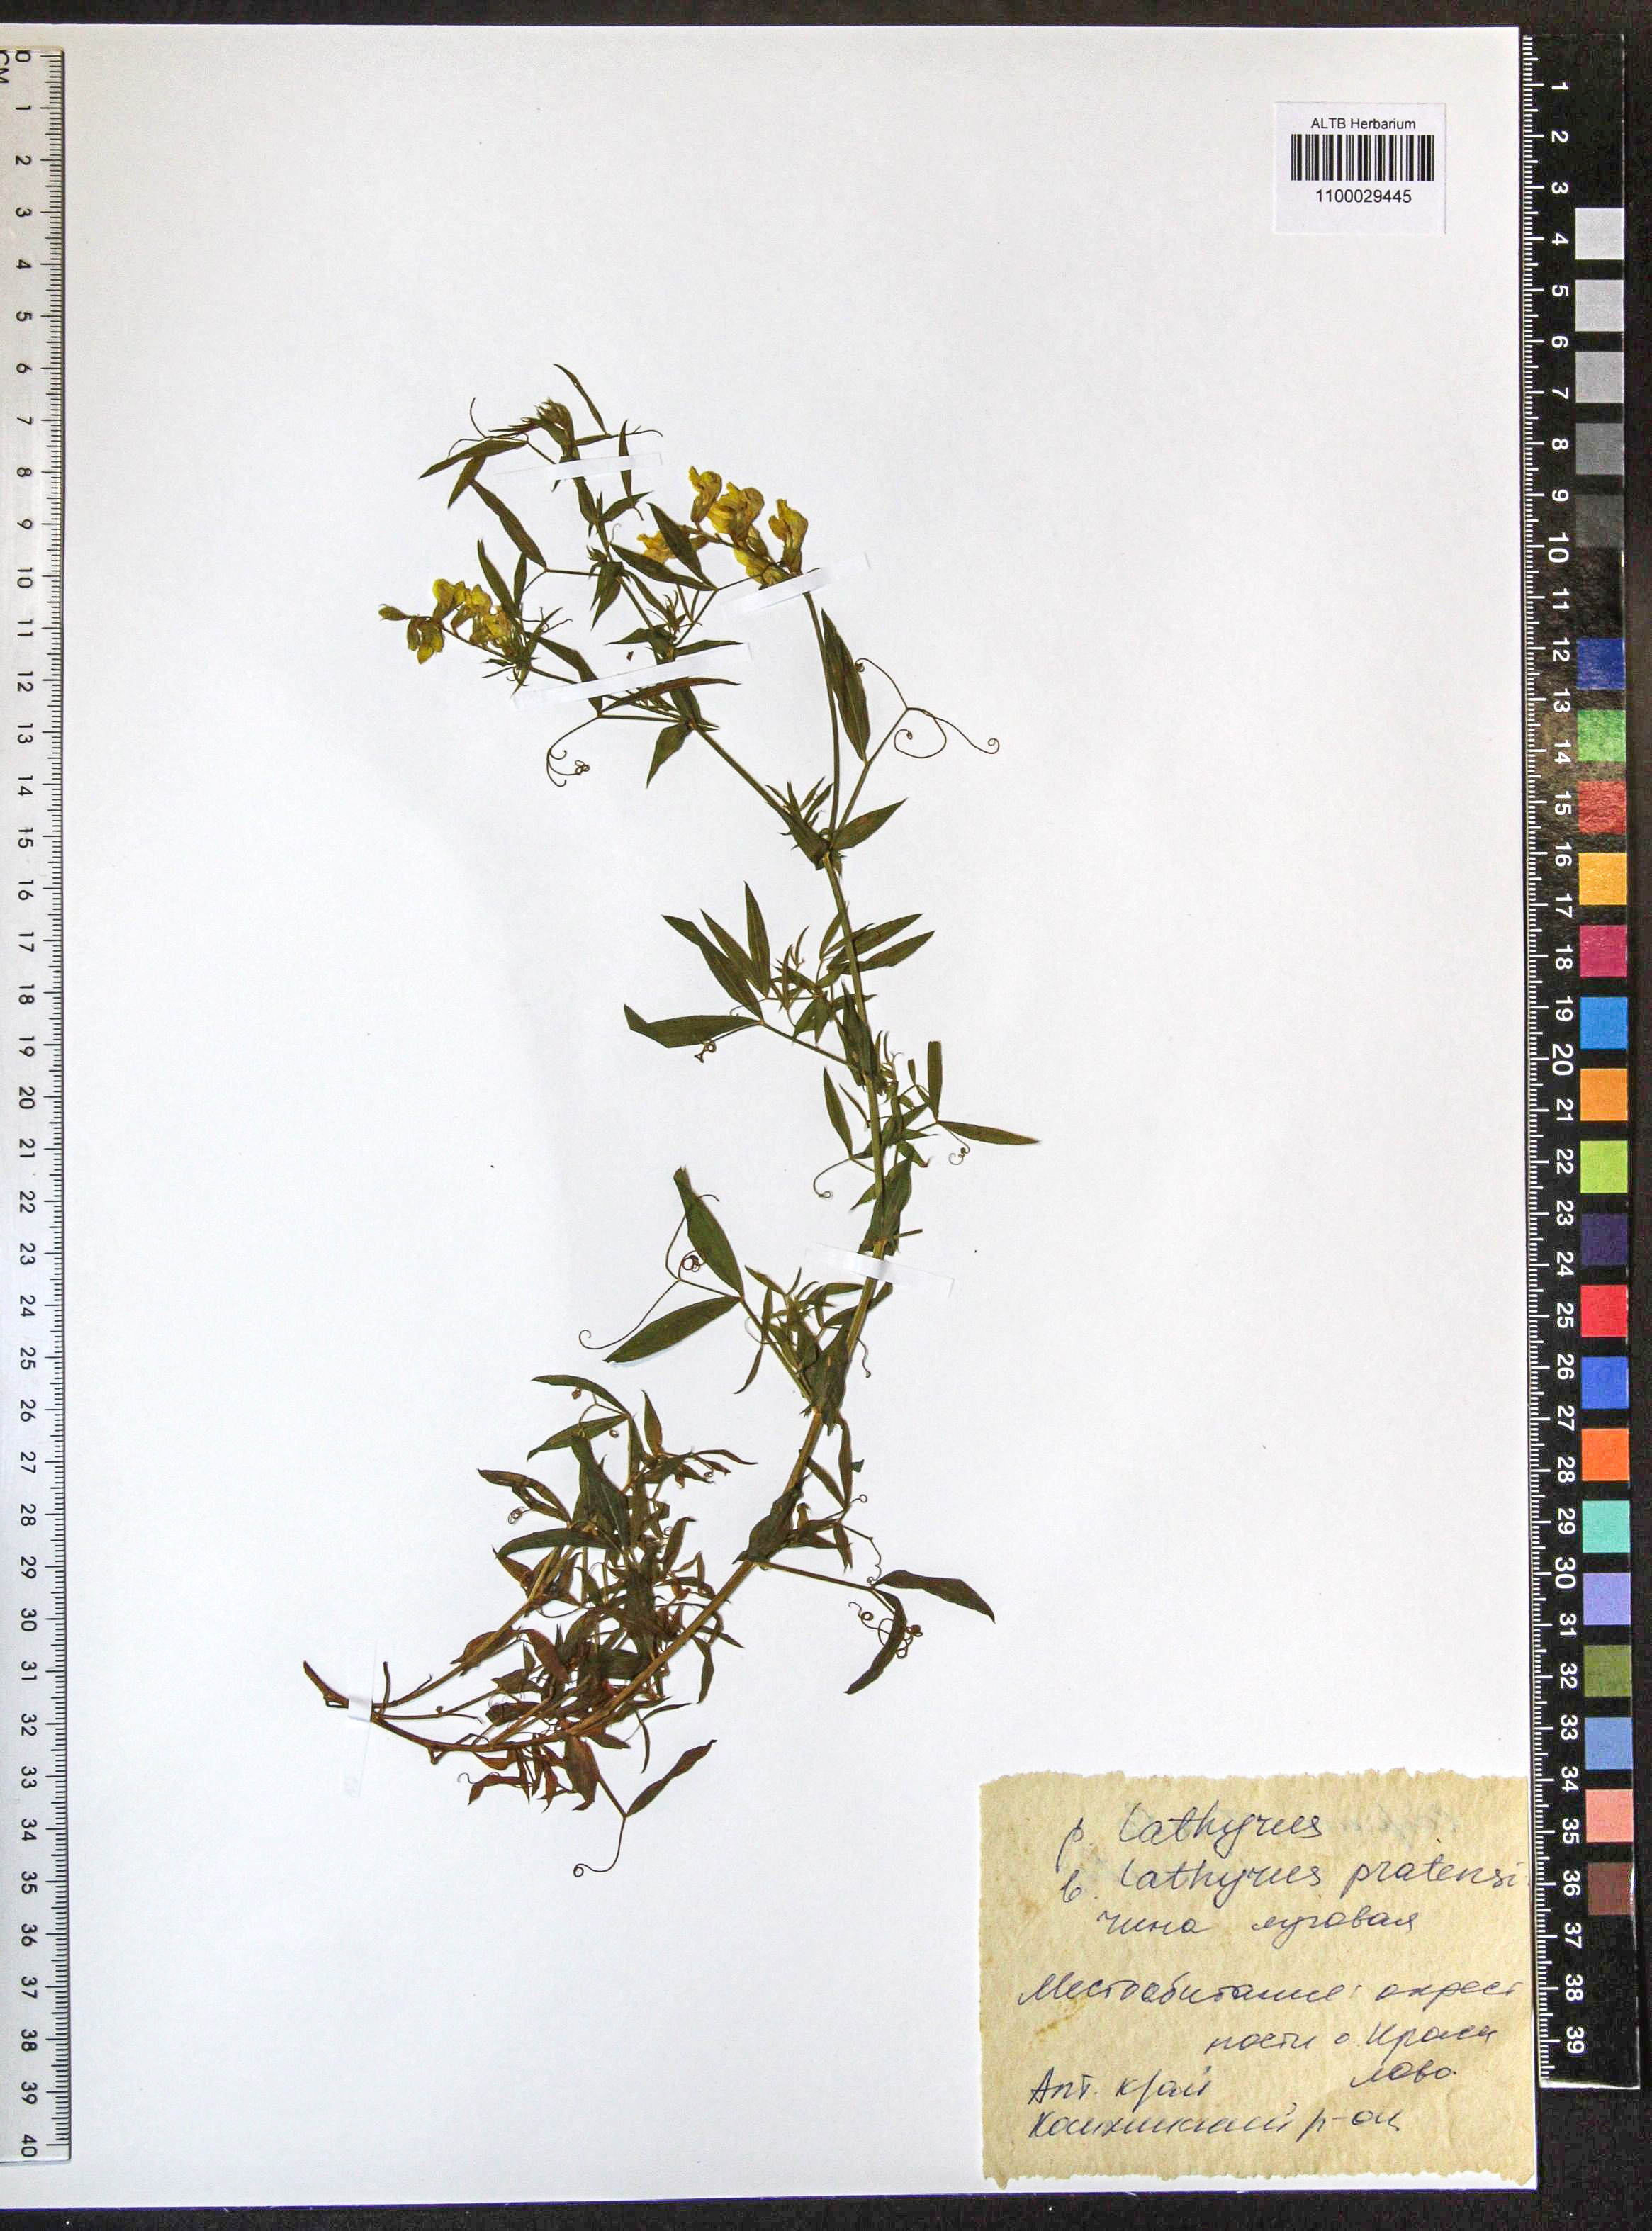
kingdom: Plantae
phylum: Tracheophyta
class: Magnoliopsida
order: Fabales
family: Fabaceae
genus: Lathyrus
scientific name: Lathyrus pratensis
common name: Meadow vetchling
